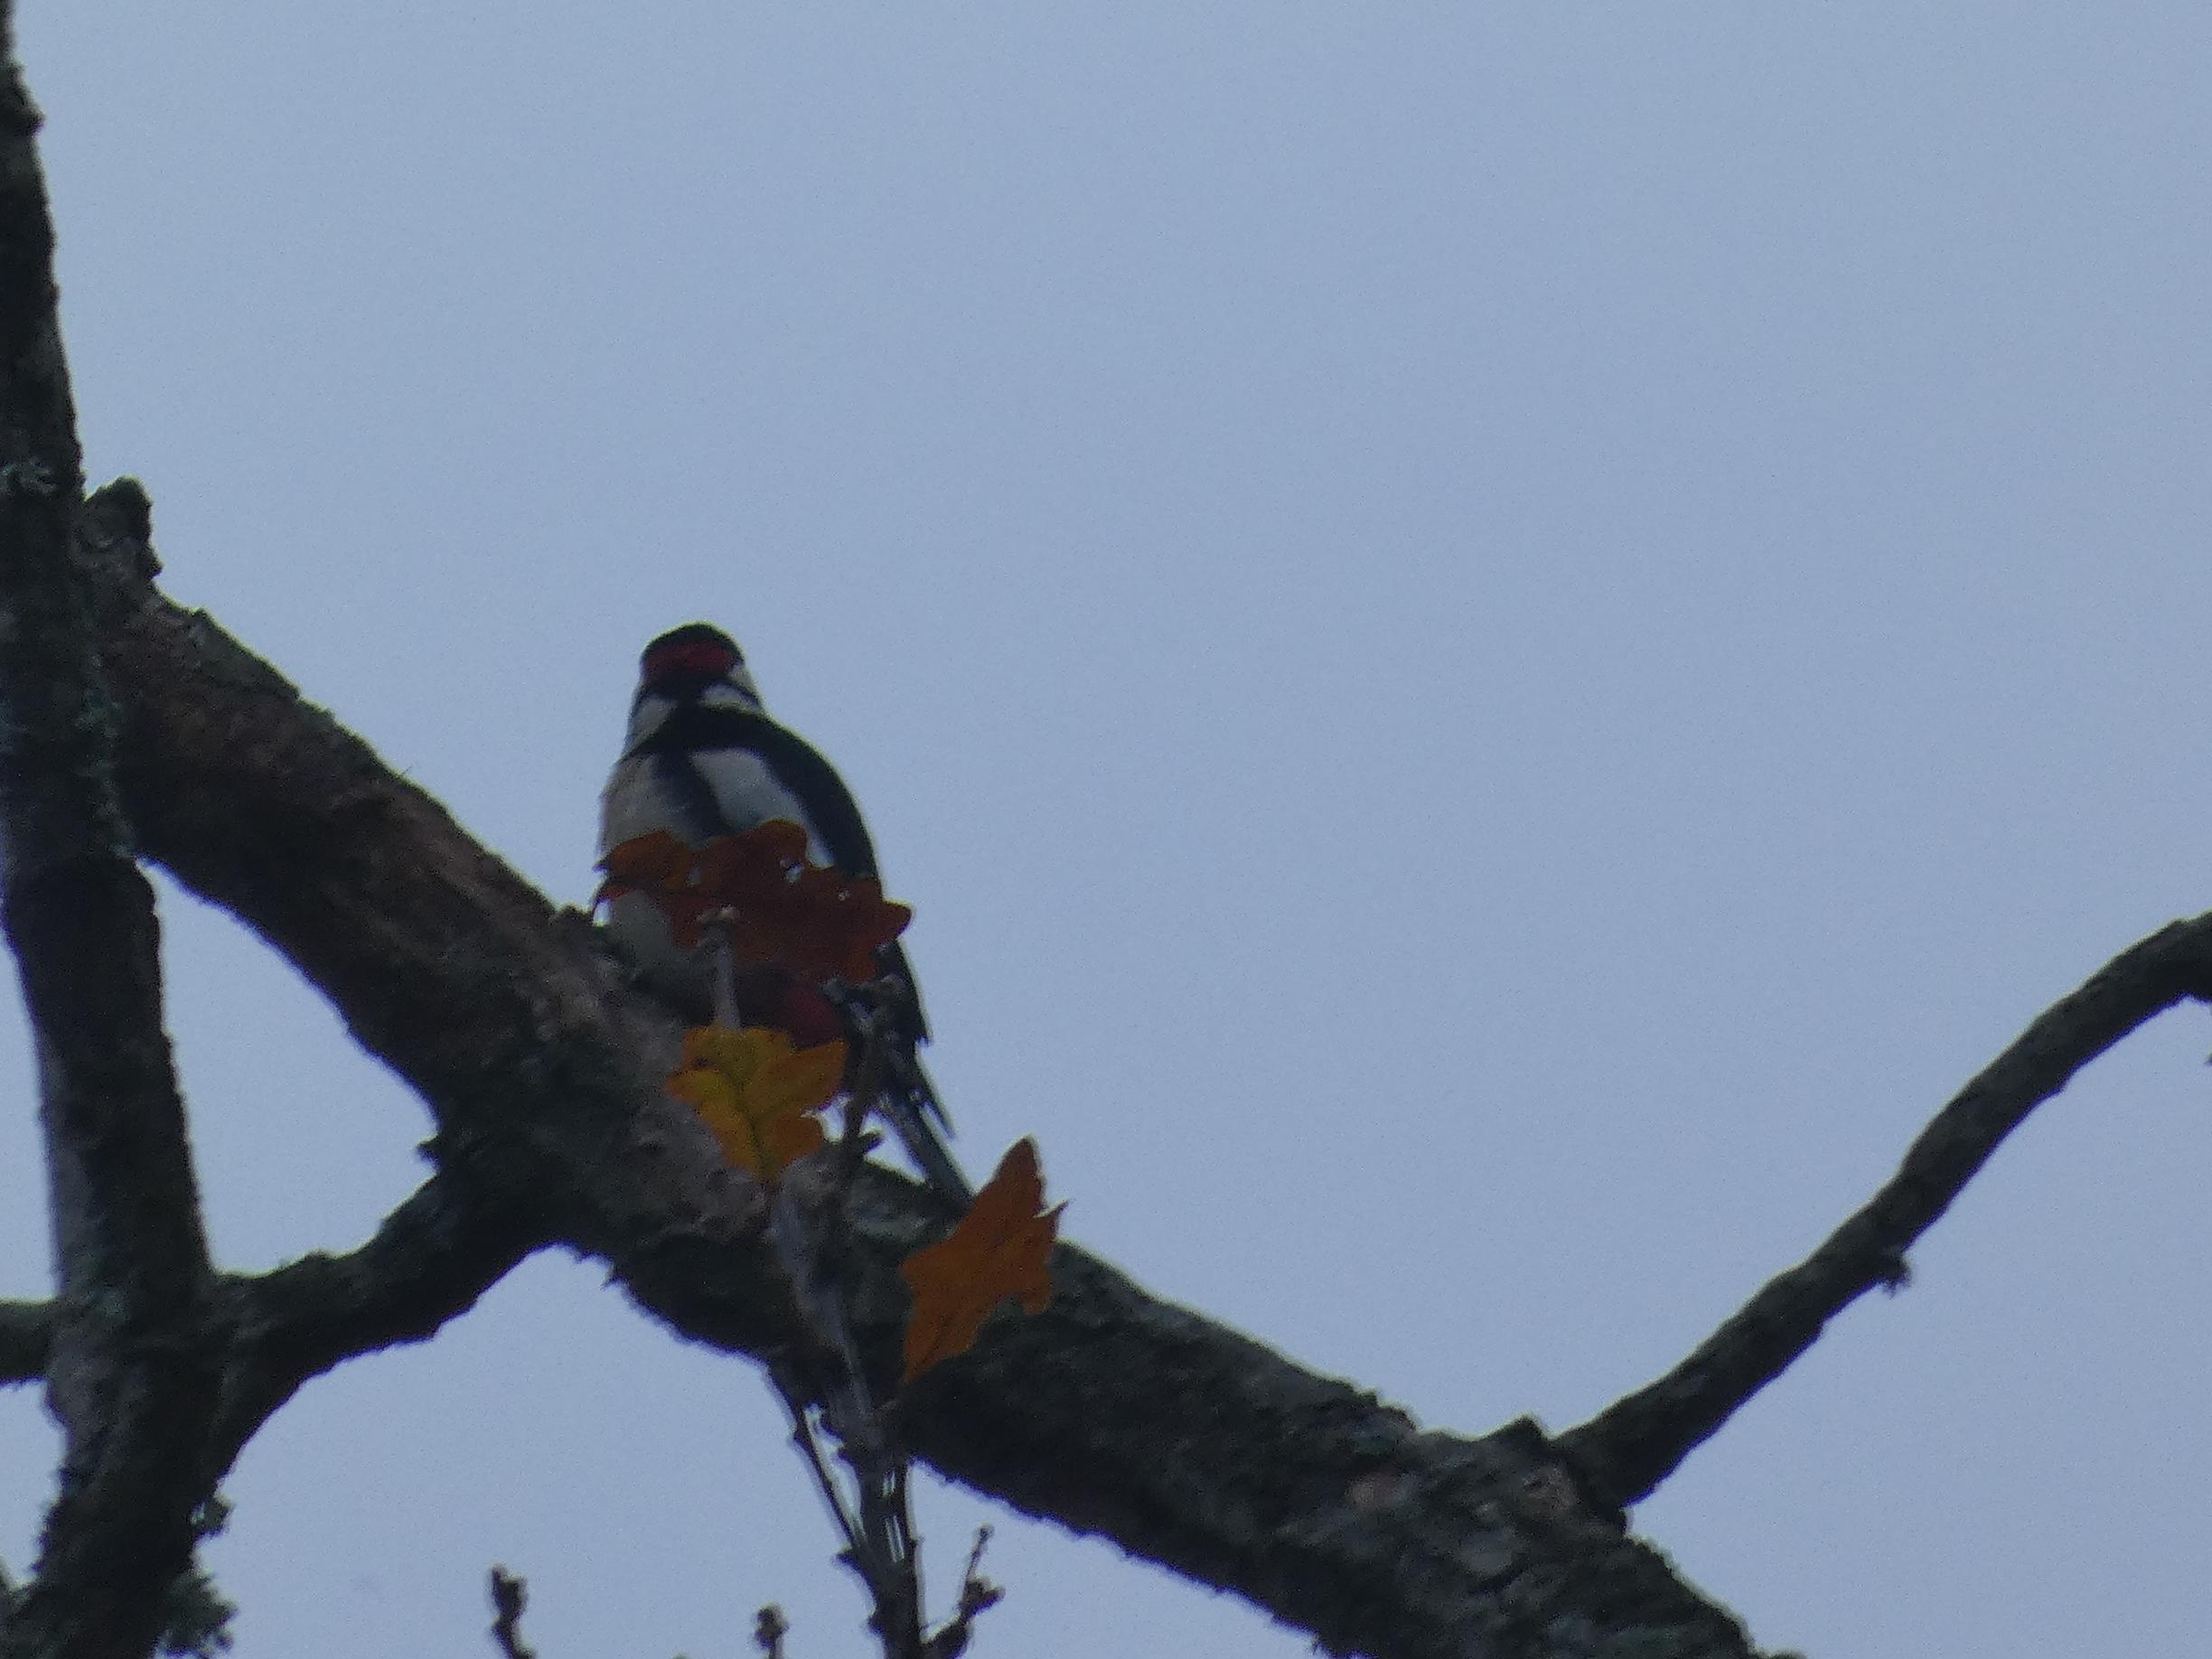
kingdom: Animalia
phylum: Chordata
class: Aves
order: Piciformes
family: Picidae
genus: Dendrocopos
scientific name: Dendrocopos major
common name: Stor flagspætte
